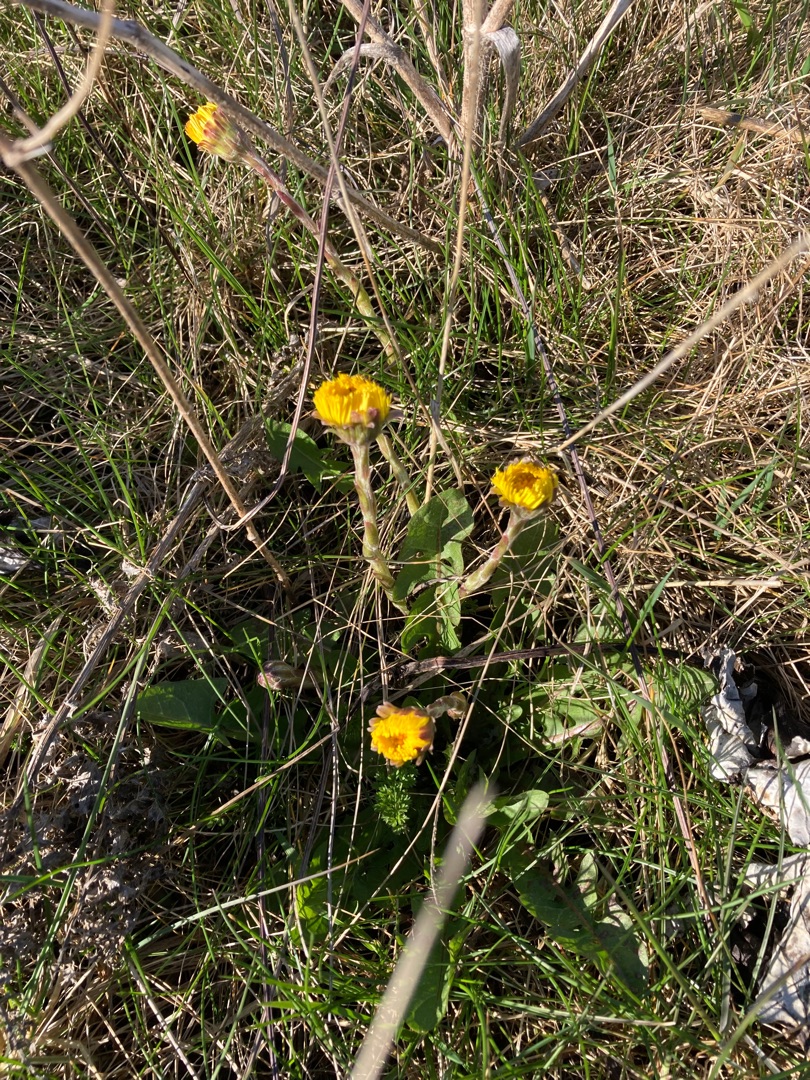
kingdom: Plantae
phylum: Tracheophyta
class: Magnoliopsida
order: Asterales
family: Asteraceae
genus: Tussilago
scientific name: Tussilago farfara
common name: Følfod
